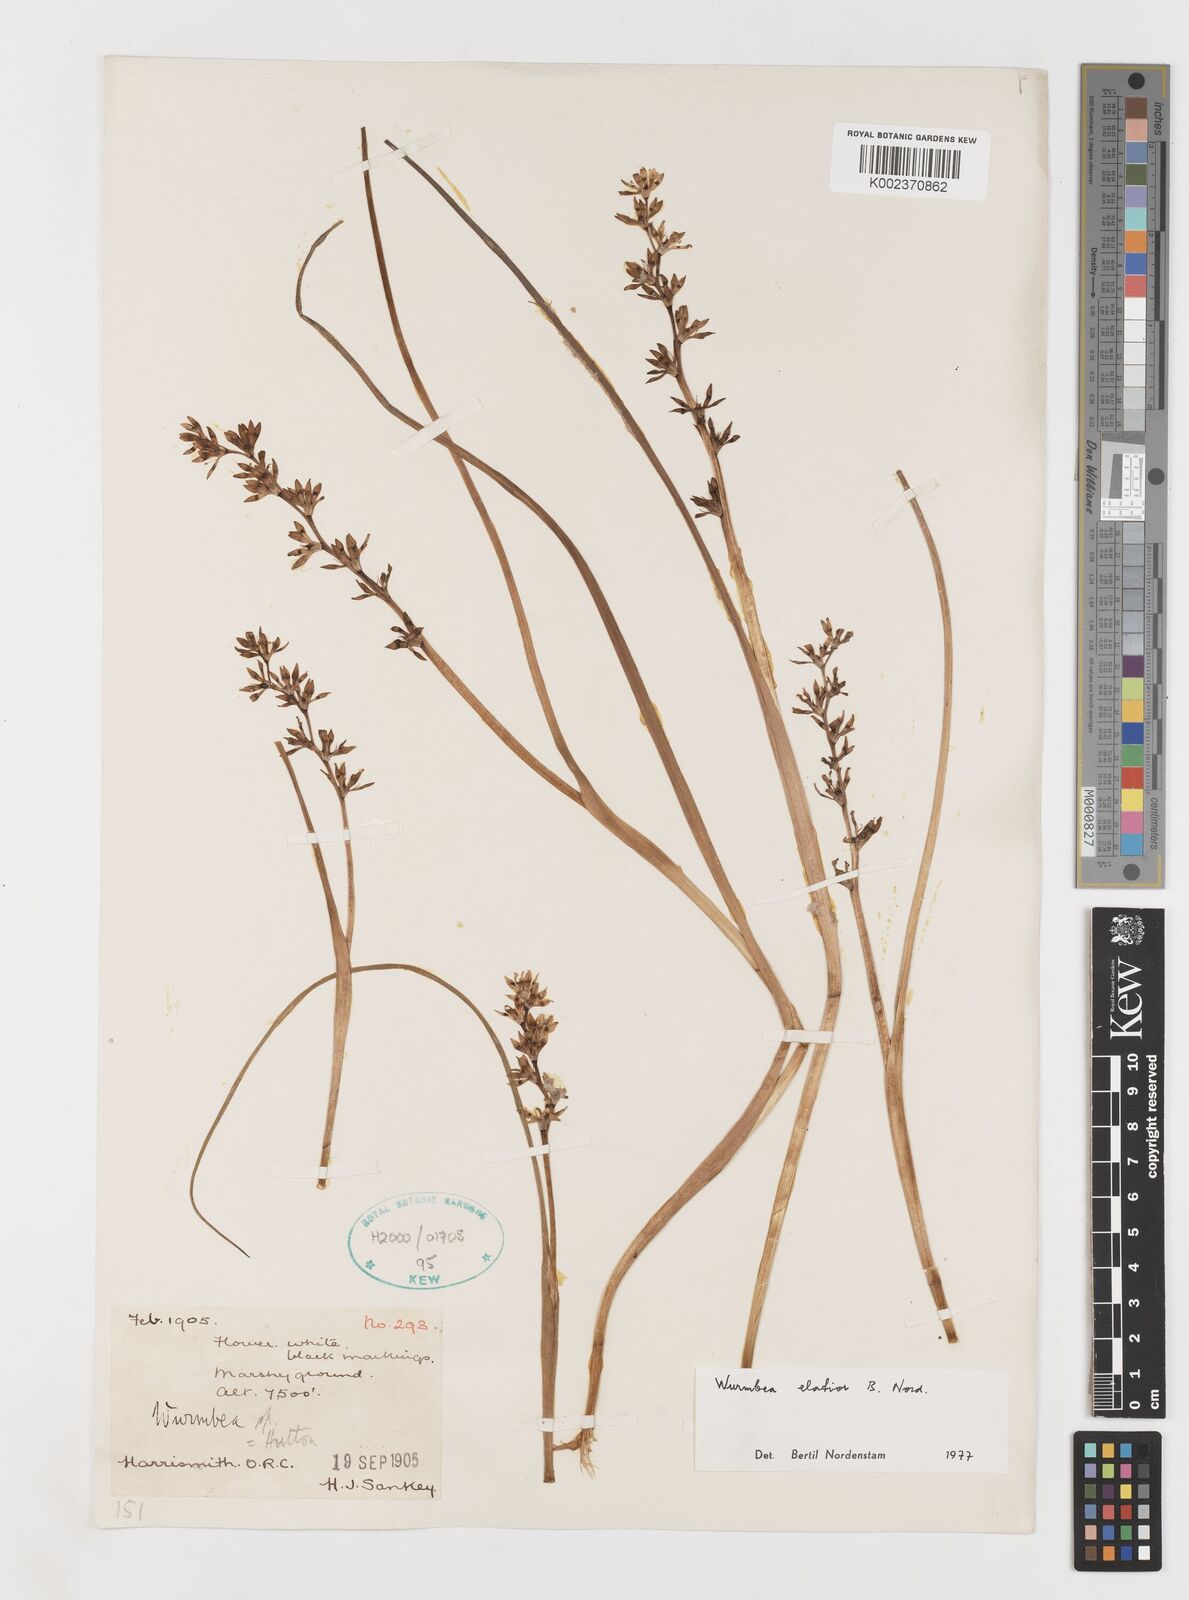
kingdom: Plantae
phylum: Tracheophyta
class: Liliopsida
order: Liliales
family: Colchicaceae
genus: Wurmbea
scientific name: Wurmbea elatior
